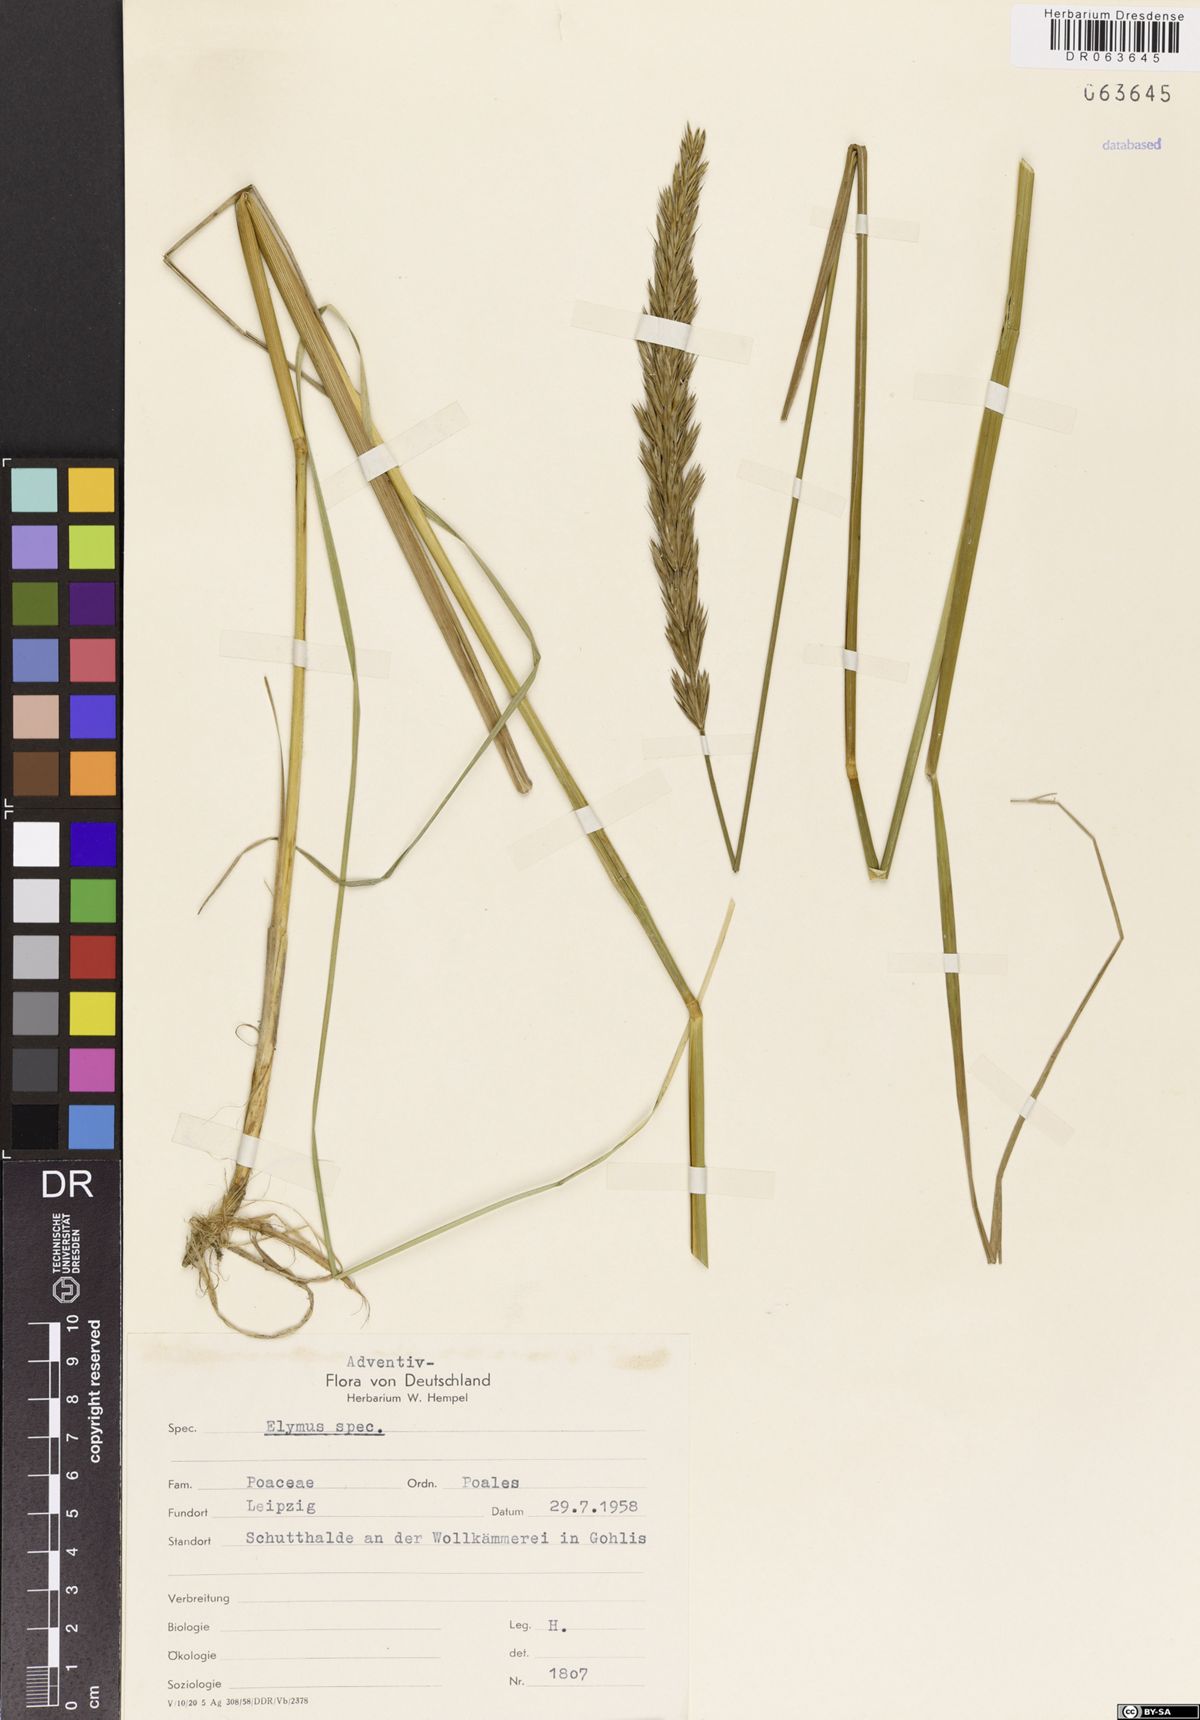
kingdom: Plantae
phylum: Tracheophyta
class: Liliopsida
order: Poales
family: Poaceae
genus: Elymus
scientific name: Elymus
